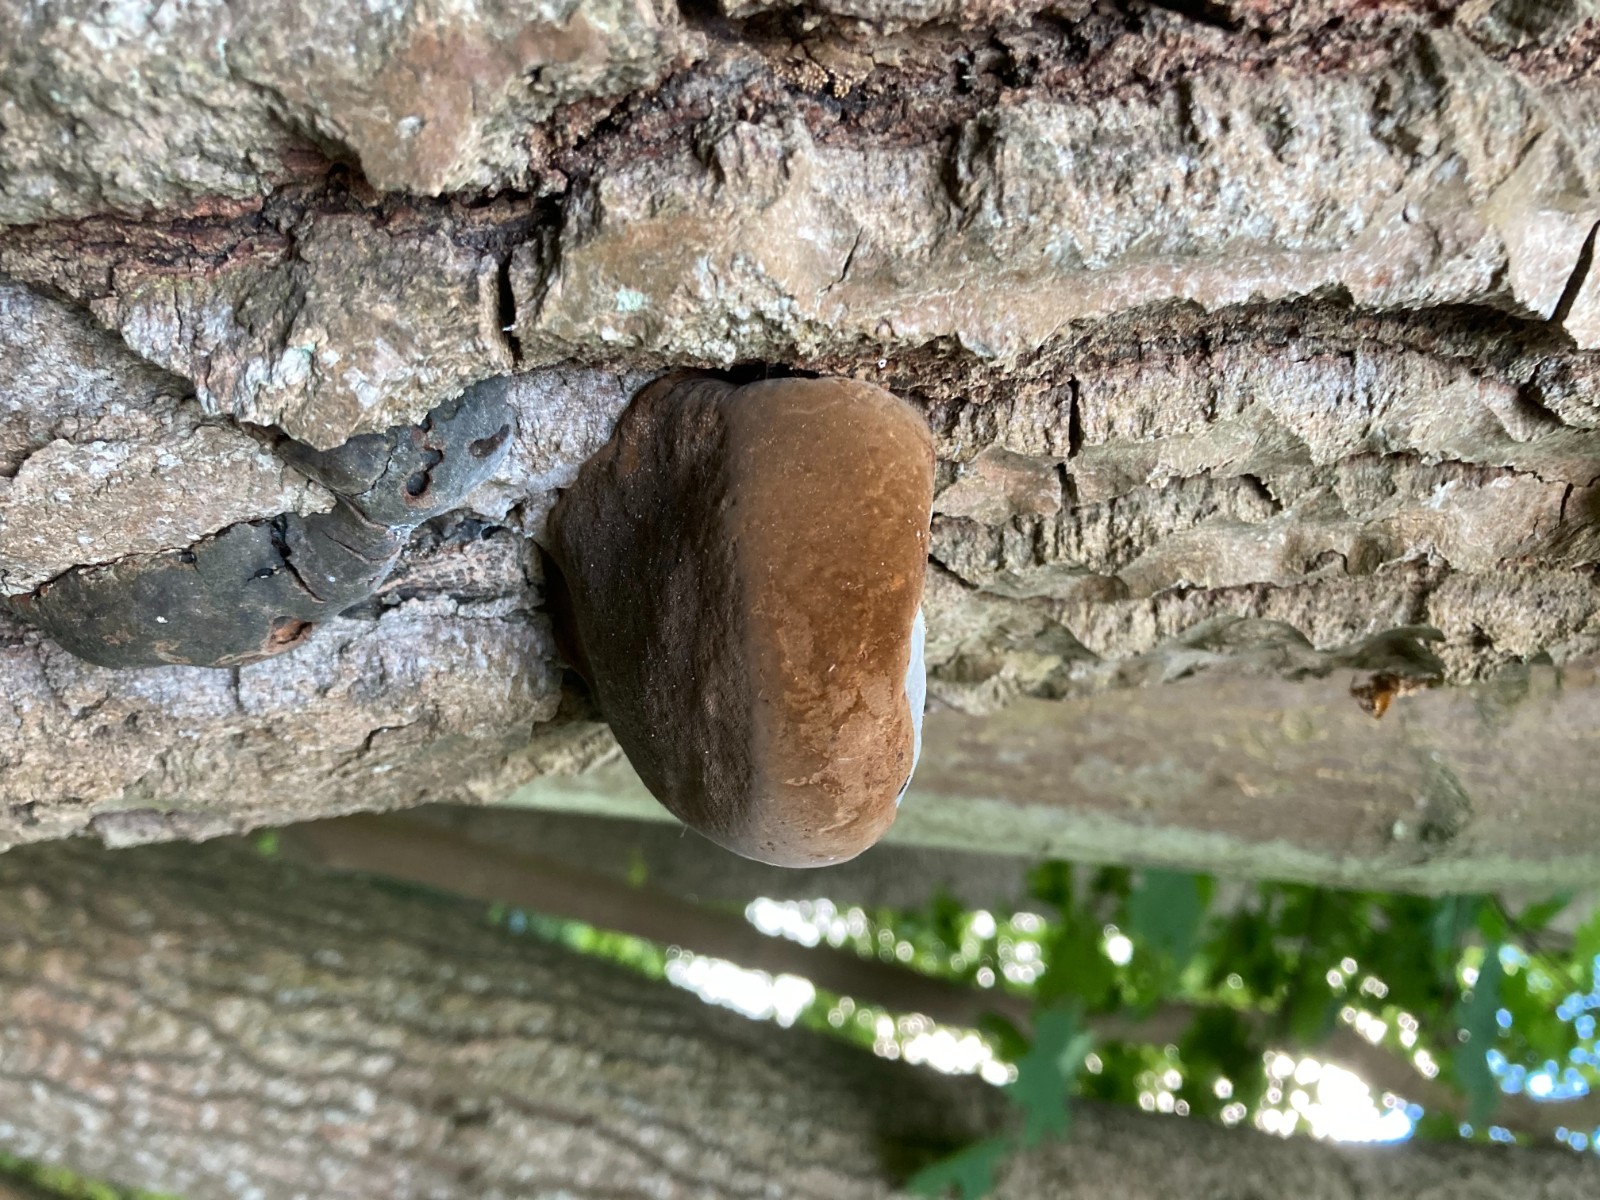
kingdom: Fungi
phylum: Basidiomycota
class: Agaricomycetes
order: Hymenochaetales
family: Hymenochaetaceae
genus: Phellinus
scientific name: Phellinus populicola
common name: poppel-ildporesvamp
